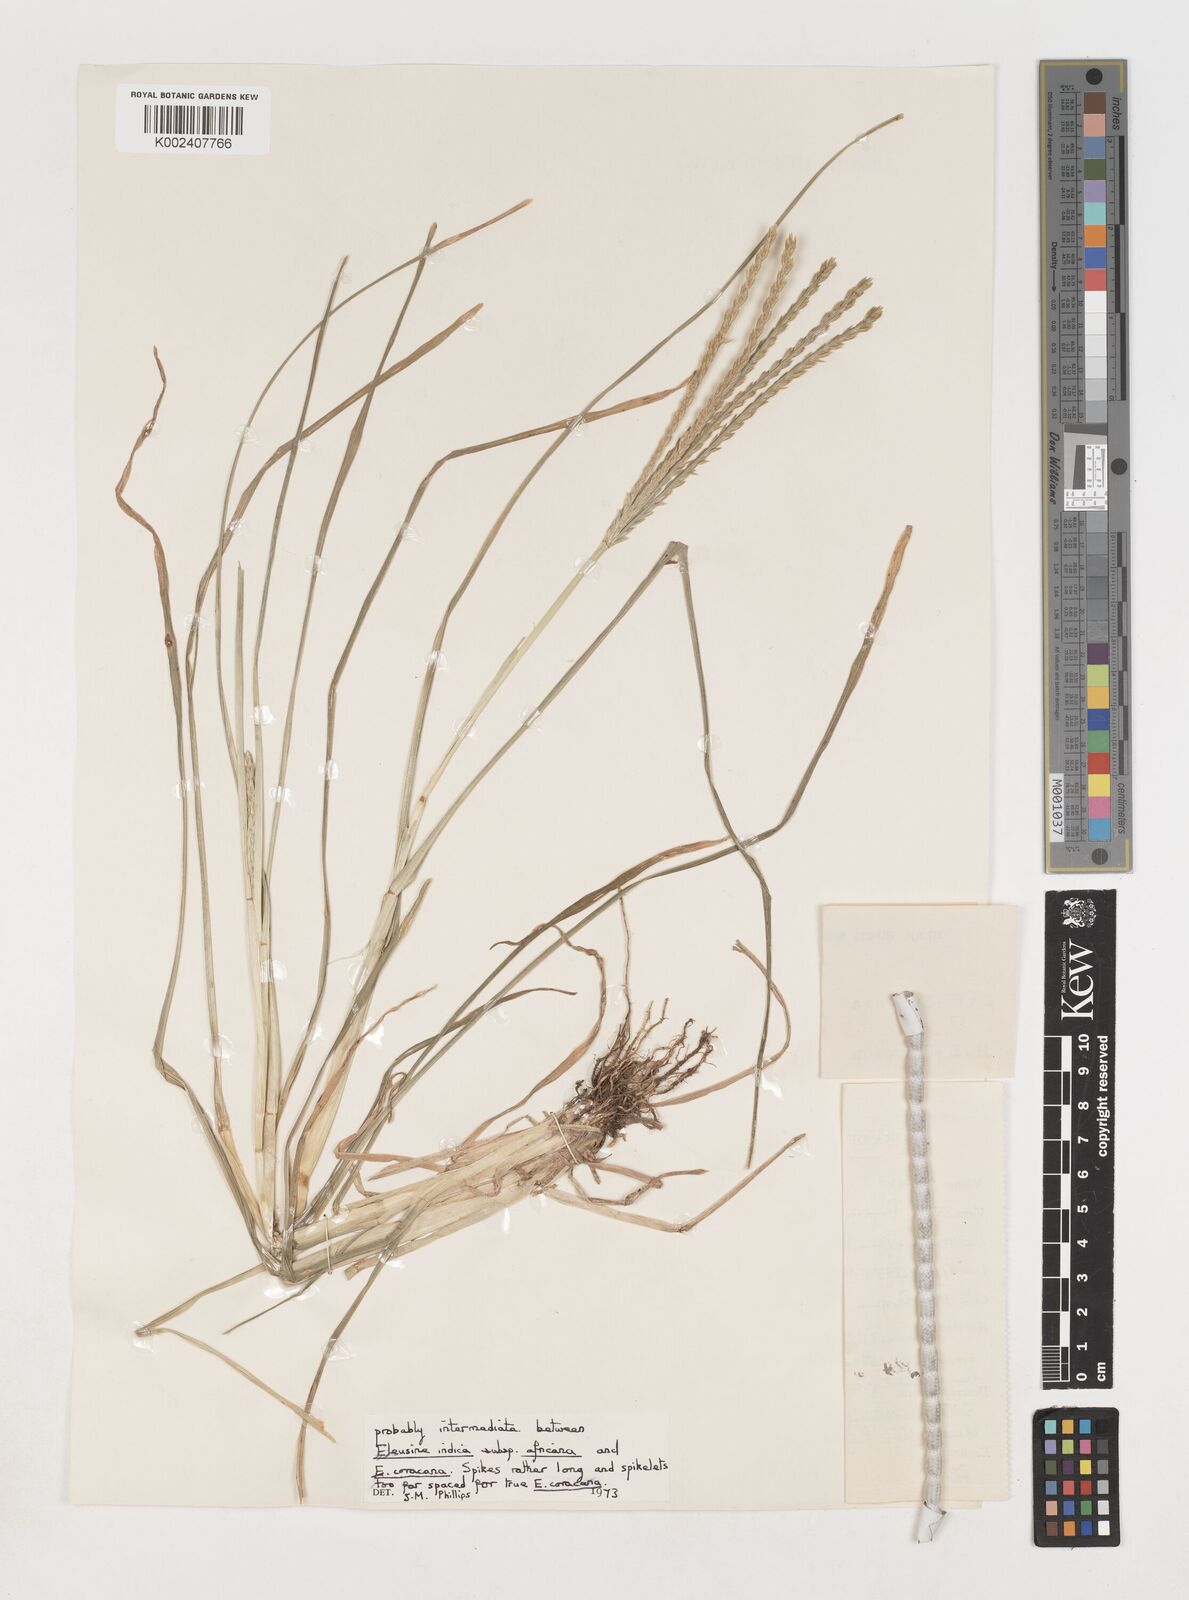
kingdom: Plantae
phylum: Tracheophyta
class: Liliopsida
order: Poales
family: Poaceae
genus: Eleusine
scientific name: Eleusine coracana
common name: Finger millet
